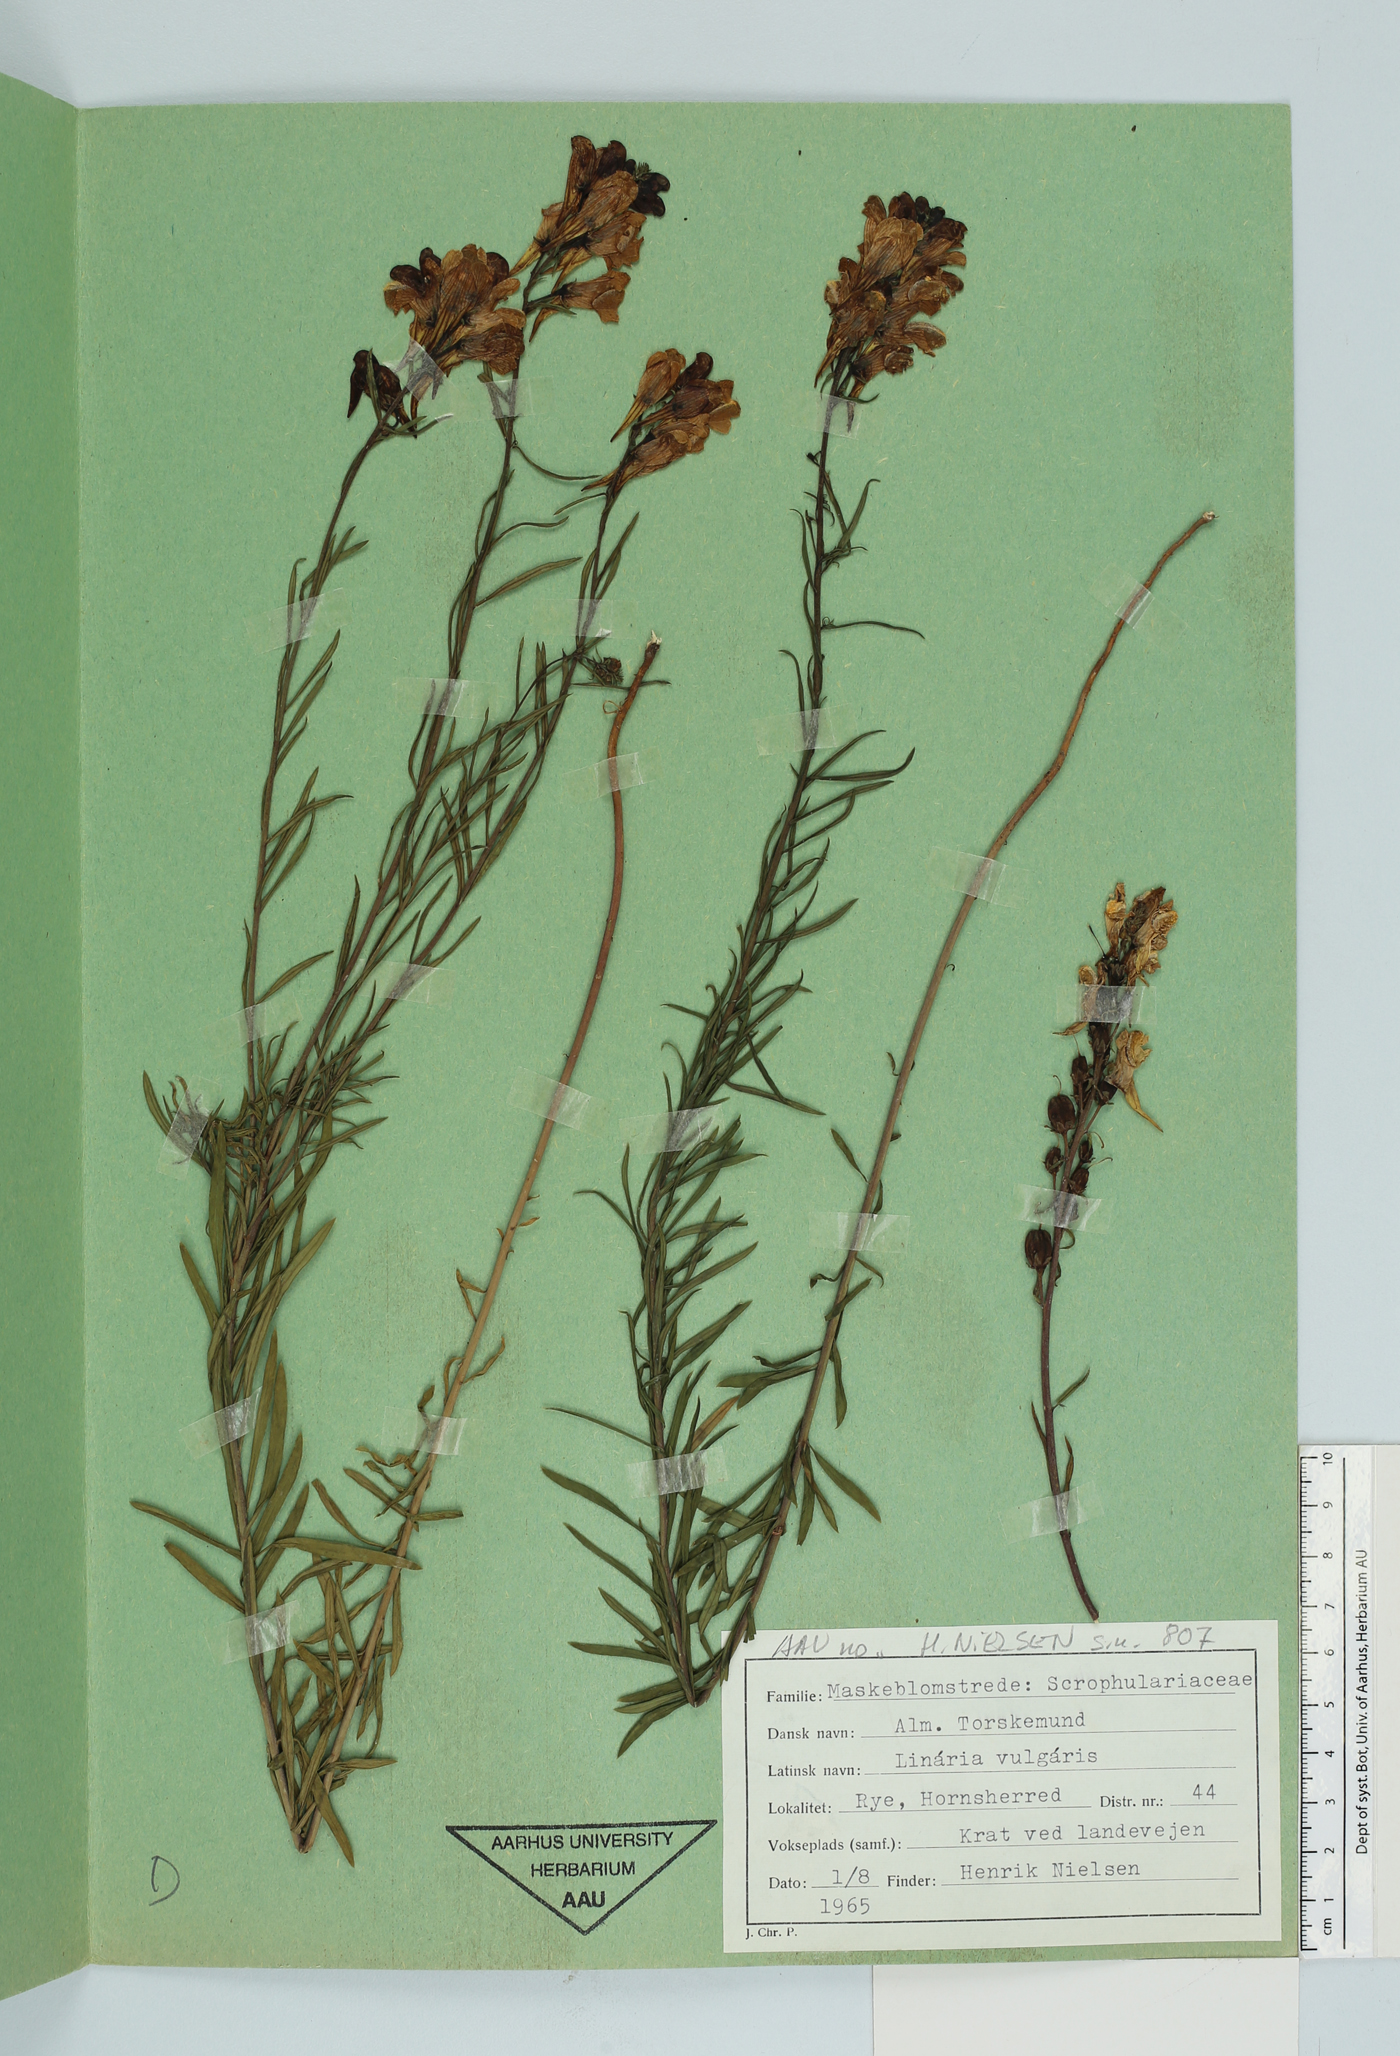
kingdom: Plantae
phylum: Tracheophyta
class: Magnoliopsida
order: Lamiales
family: Plantaginaceae
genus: Linaria
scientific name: Linaria vulgaris
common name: Butter and eggs
